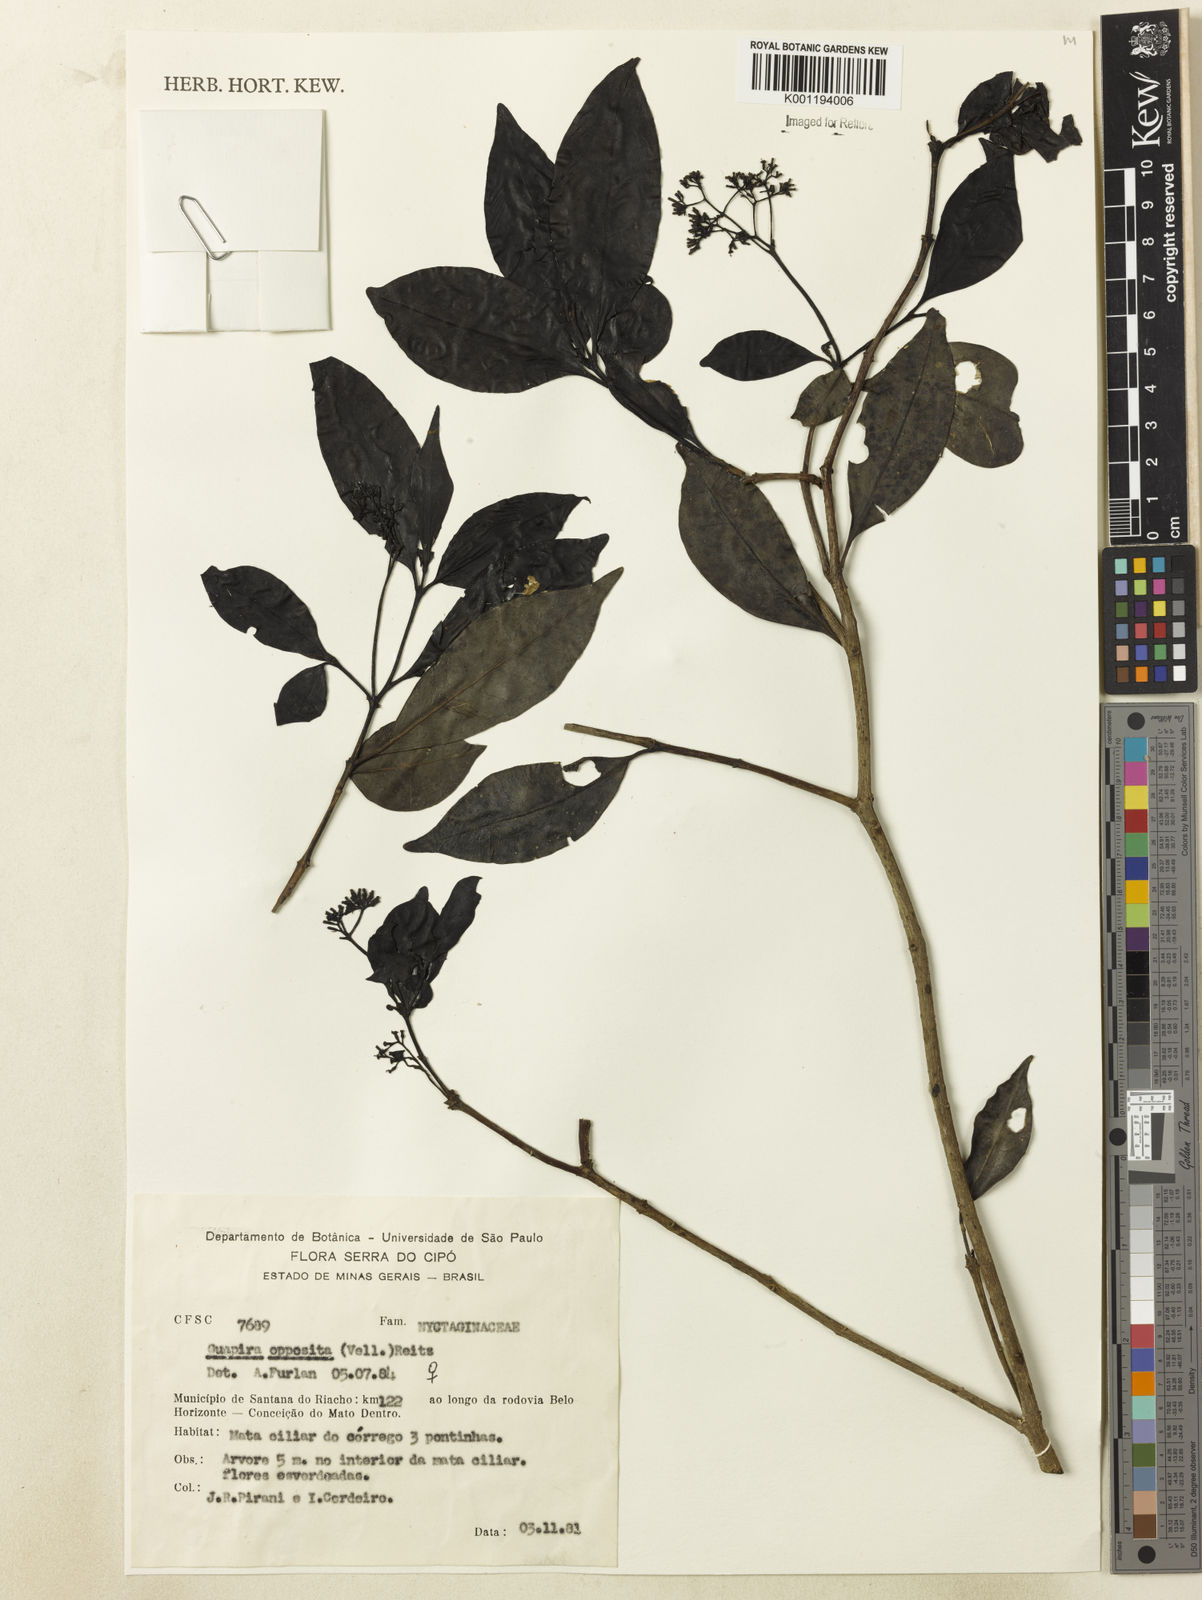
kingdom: Plantae
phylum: Tracheophyta
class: Magnoliopsida
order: Caryophyllales
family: Nyctaginaceae
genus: Guapira
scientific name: Guapira opposita
